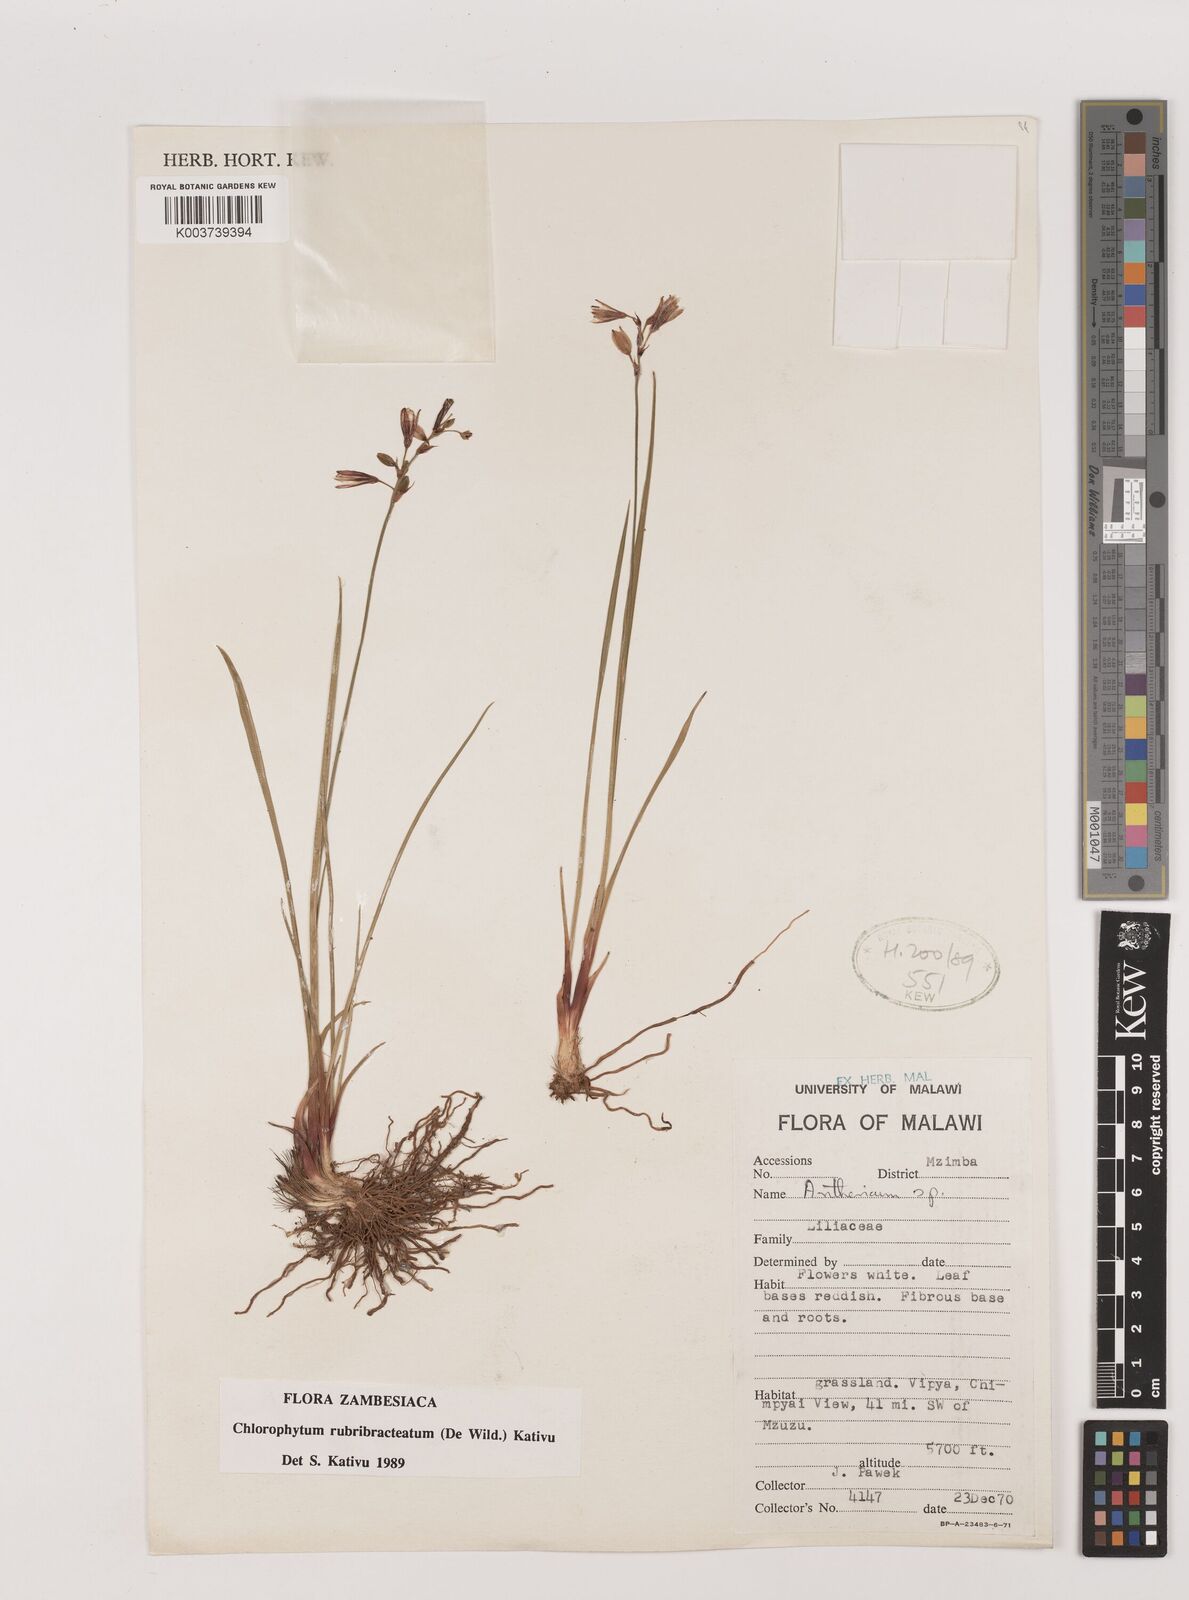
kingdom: Plantae
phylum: Tracheophyta
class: Liliopsida
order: Asparagales
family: Asparagaceae
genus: Chlorophytum
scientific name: Chlorophytum rubribracteatum
